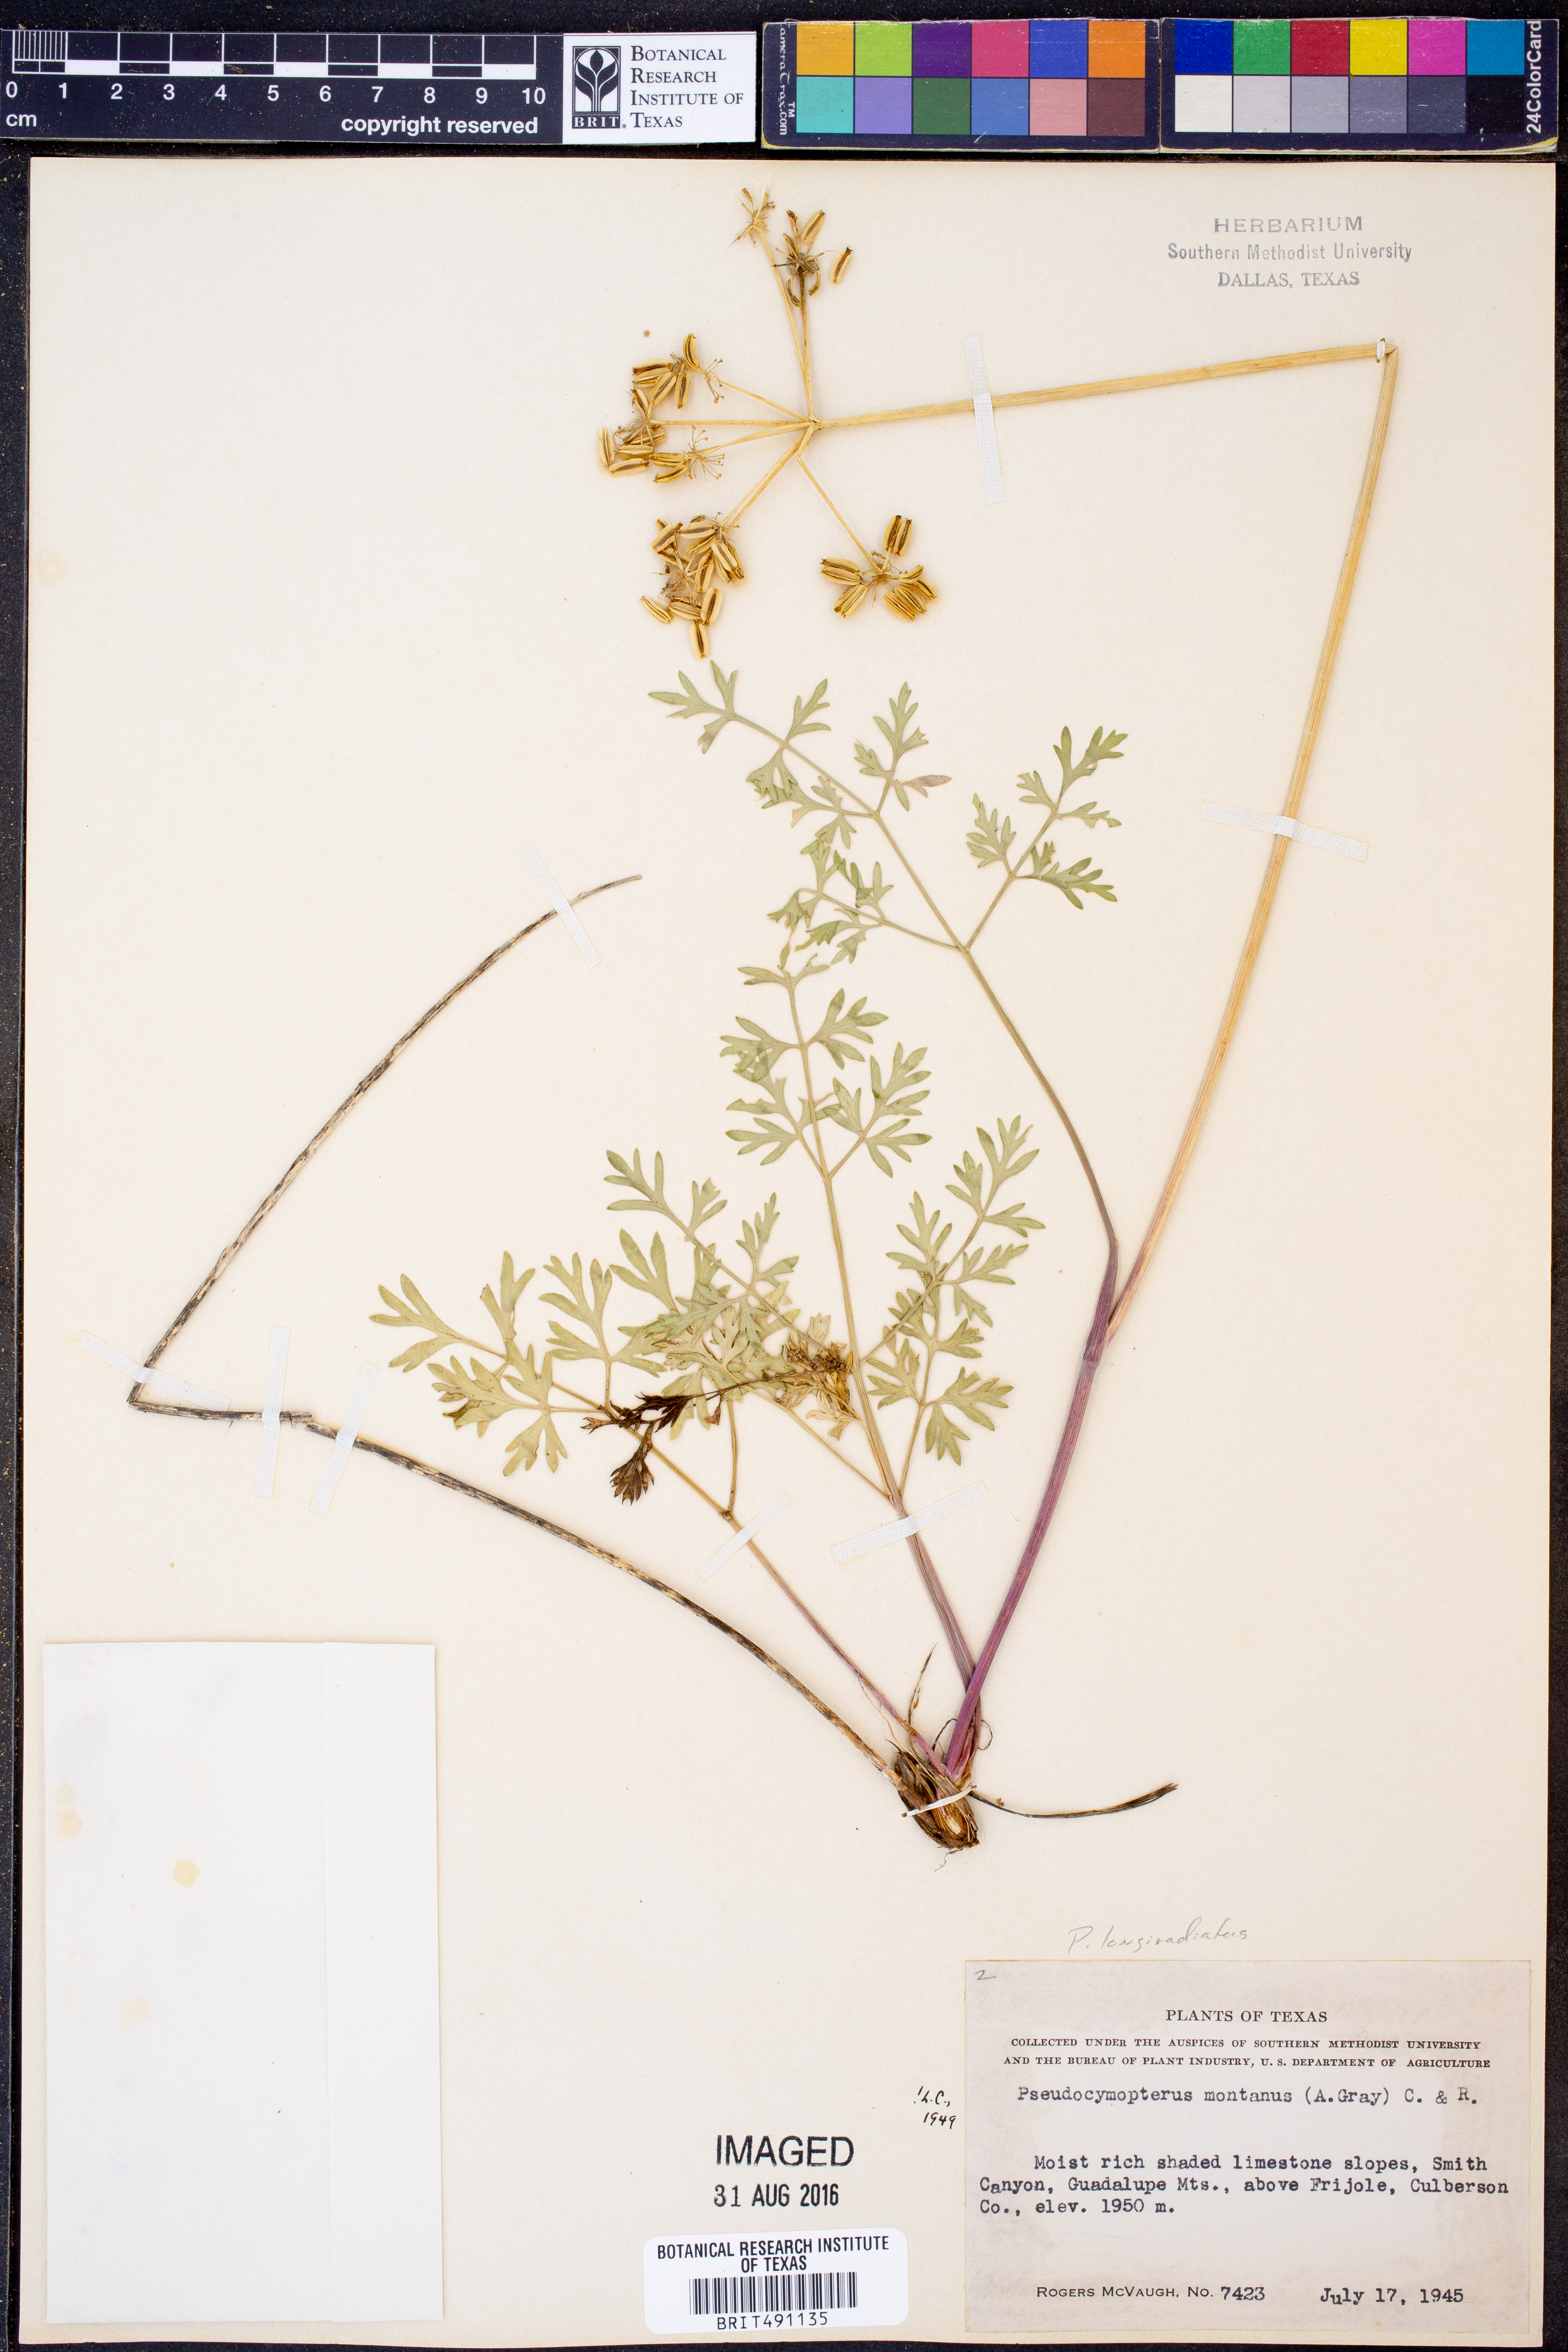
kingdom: Plantae
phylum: Tracheophyta
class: Magnoliopsida
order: Apiales
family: Apiaceae
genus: Pseudocymopterus
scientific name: Pseudocymopterus longiradiatus
